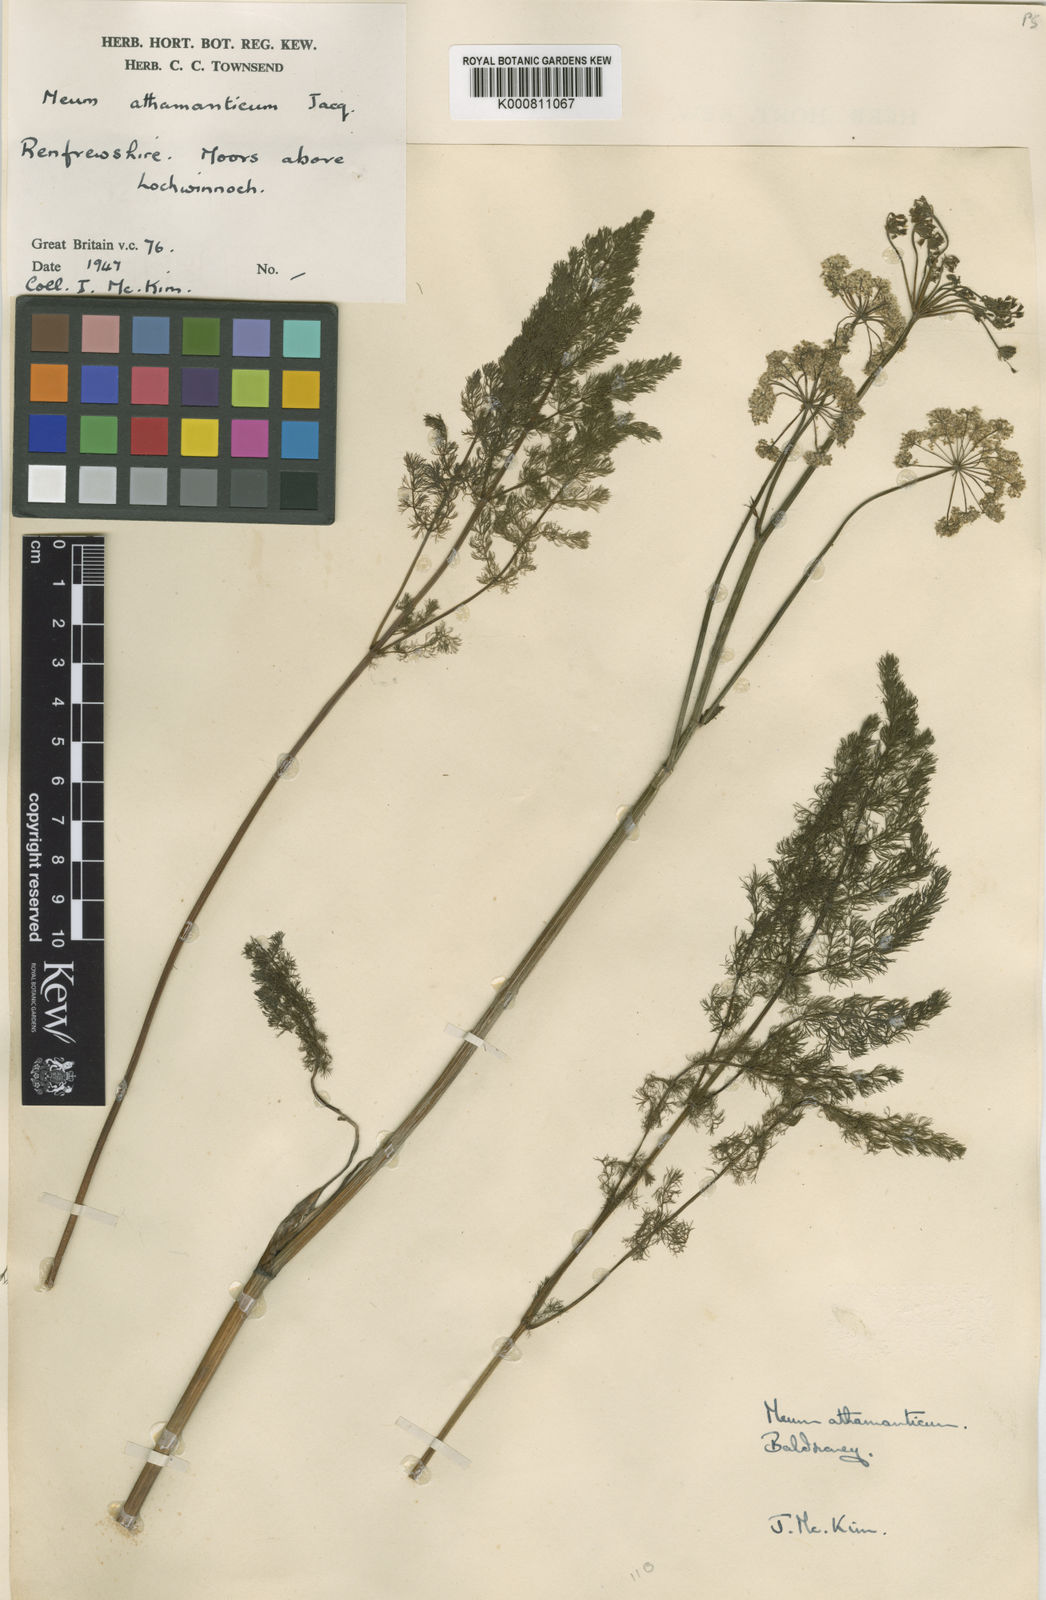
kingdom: Plantae
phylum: Tracheophyta
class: Magnoliopsida
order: Apiales
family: Apiaceae
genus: Meum
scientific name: Meum athamanticum
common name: Spignel
